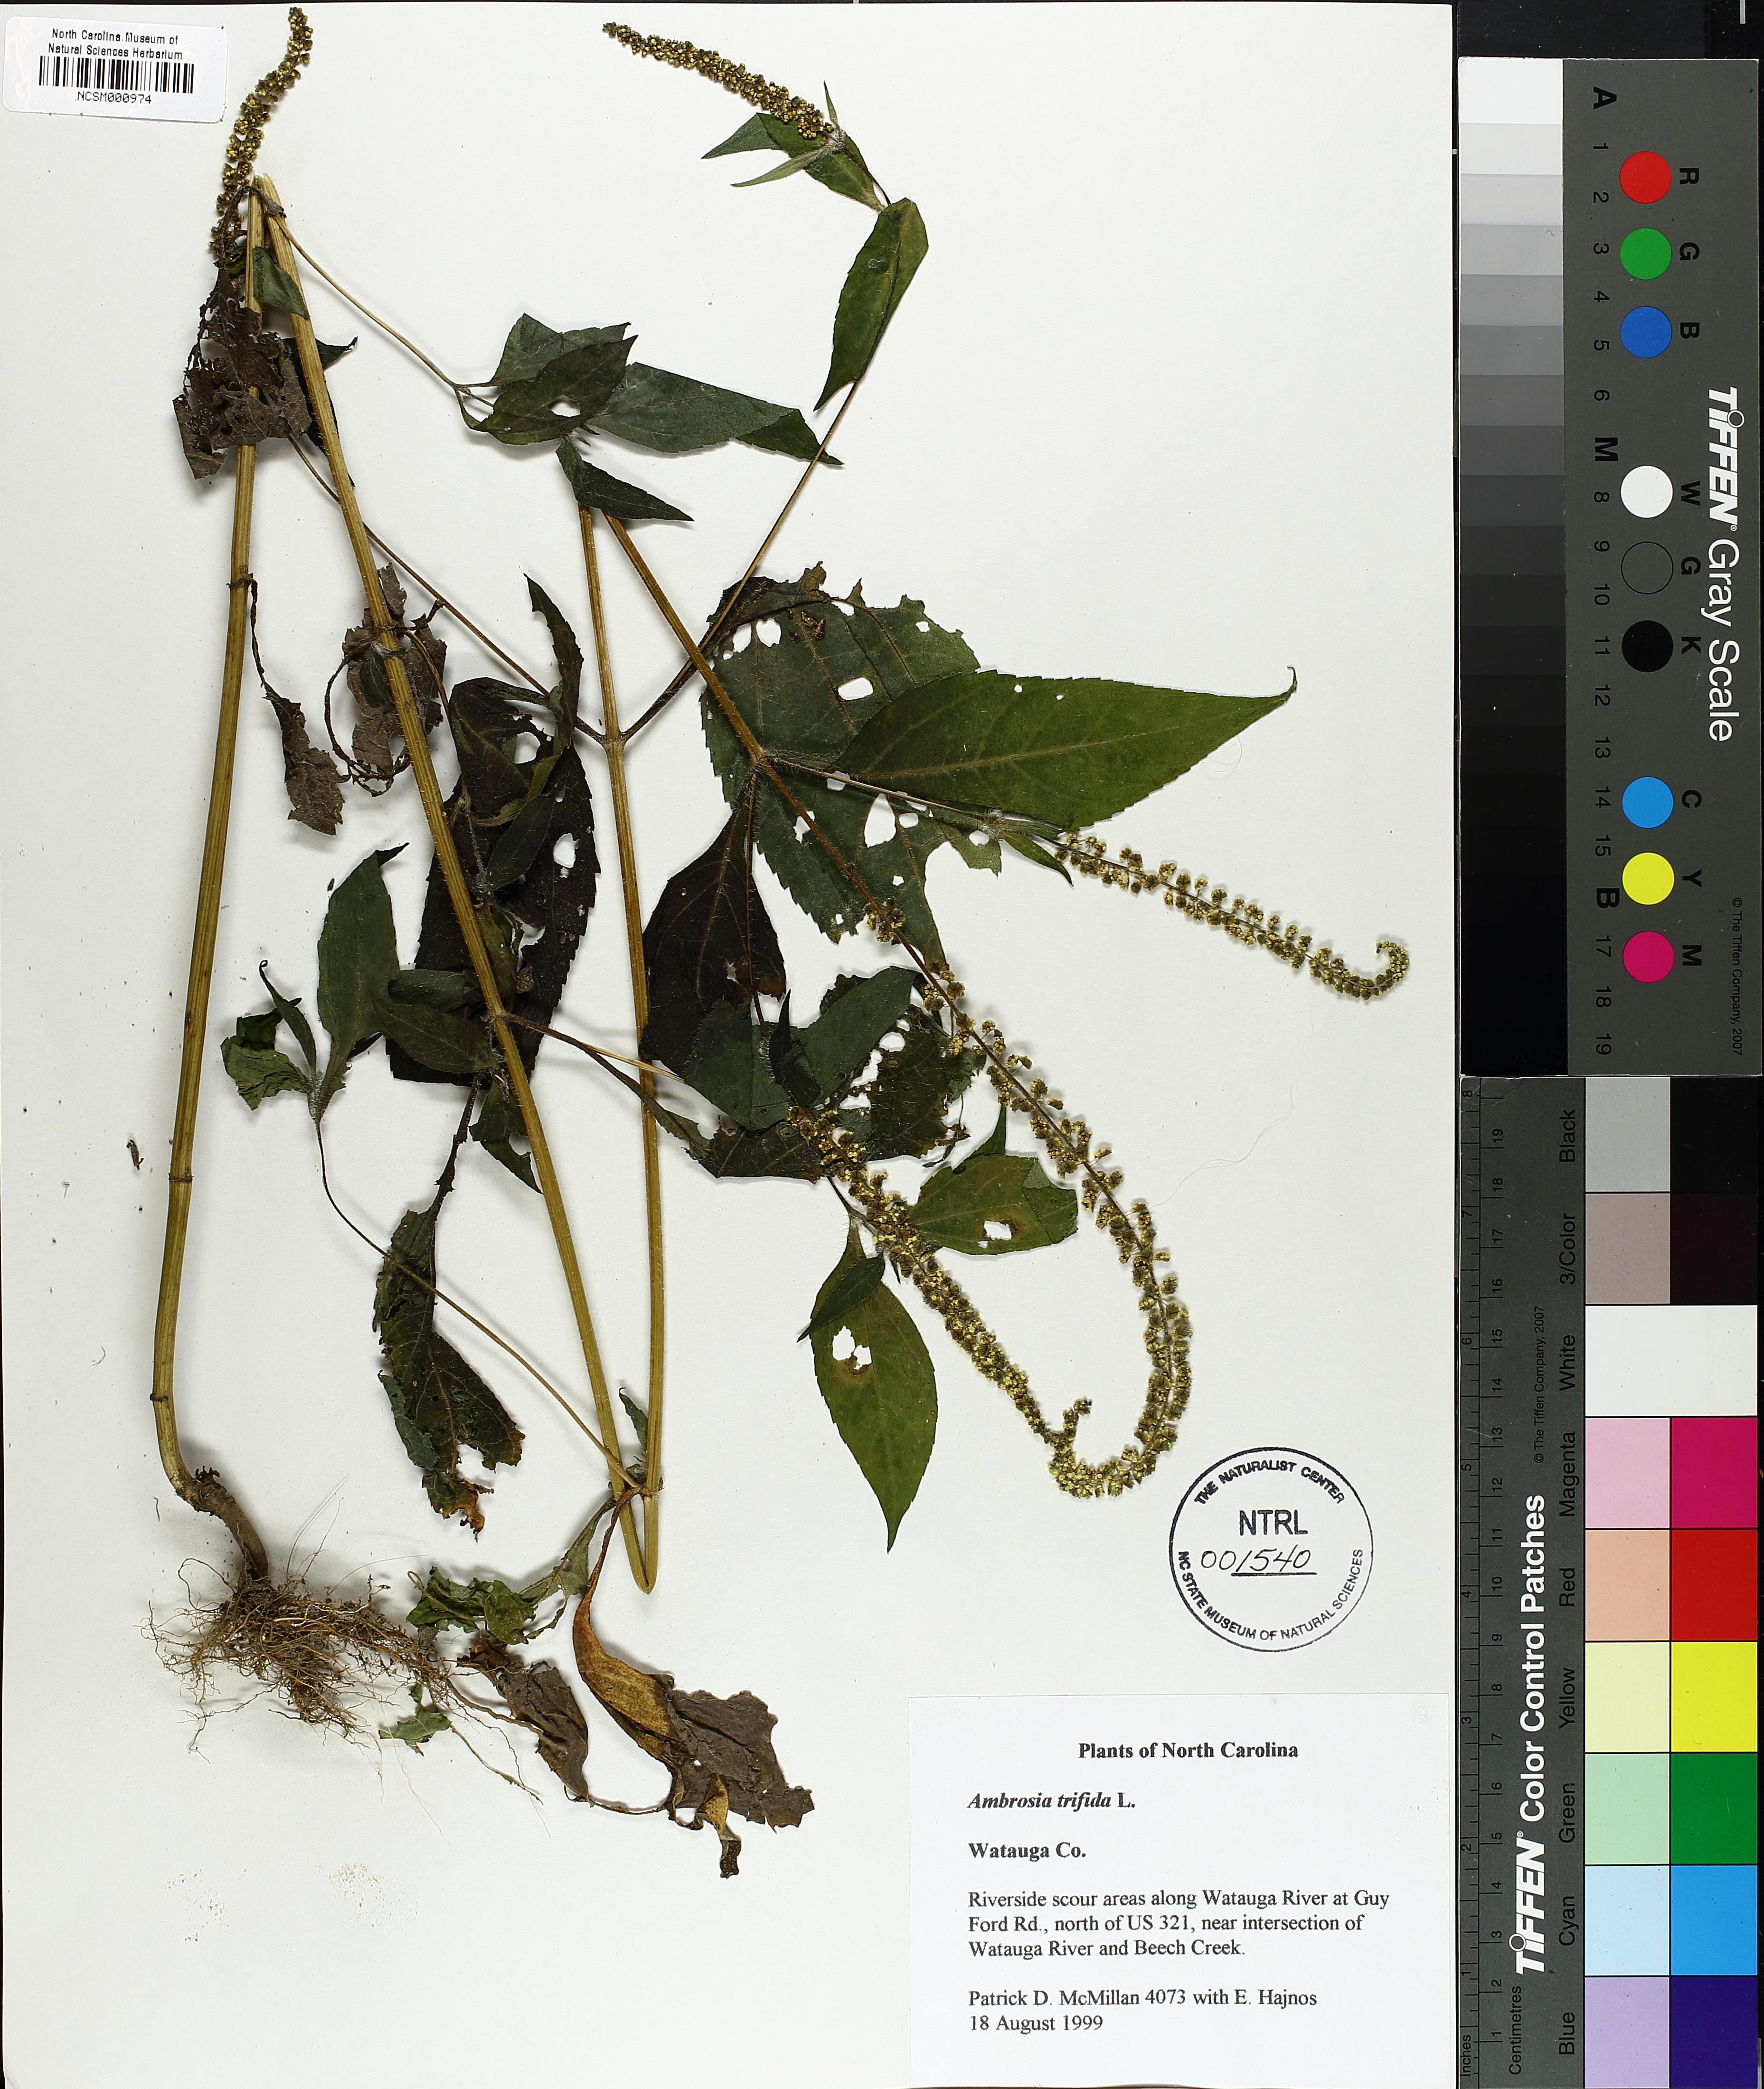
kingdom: Plantae
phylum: Tracheophyta
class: Magnoliopsida
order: Asterales
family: Asteraceae
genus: Ambrosia
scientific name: Ambrosia trifida
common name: Giant ragweed
